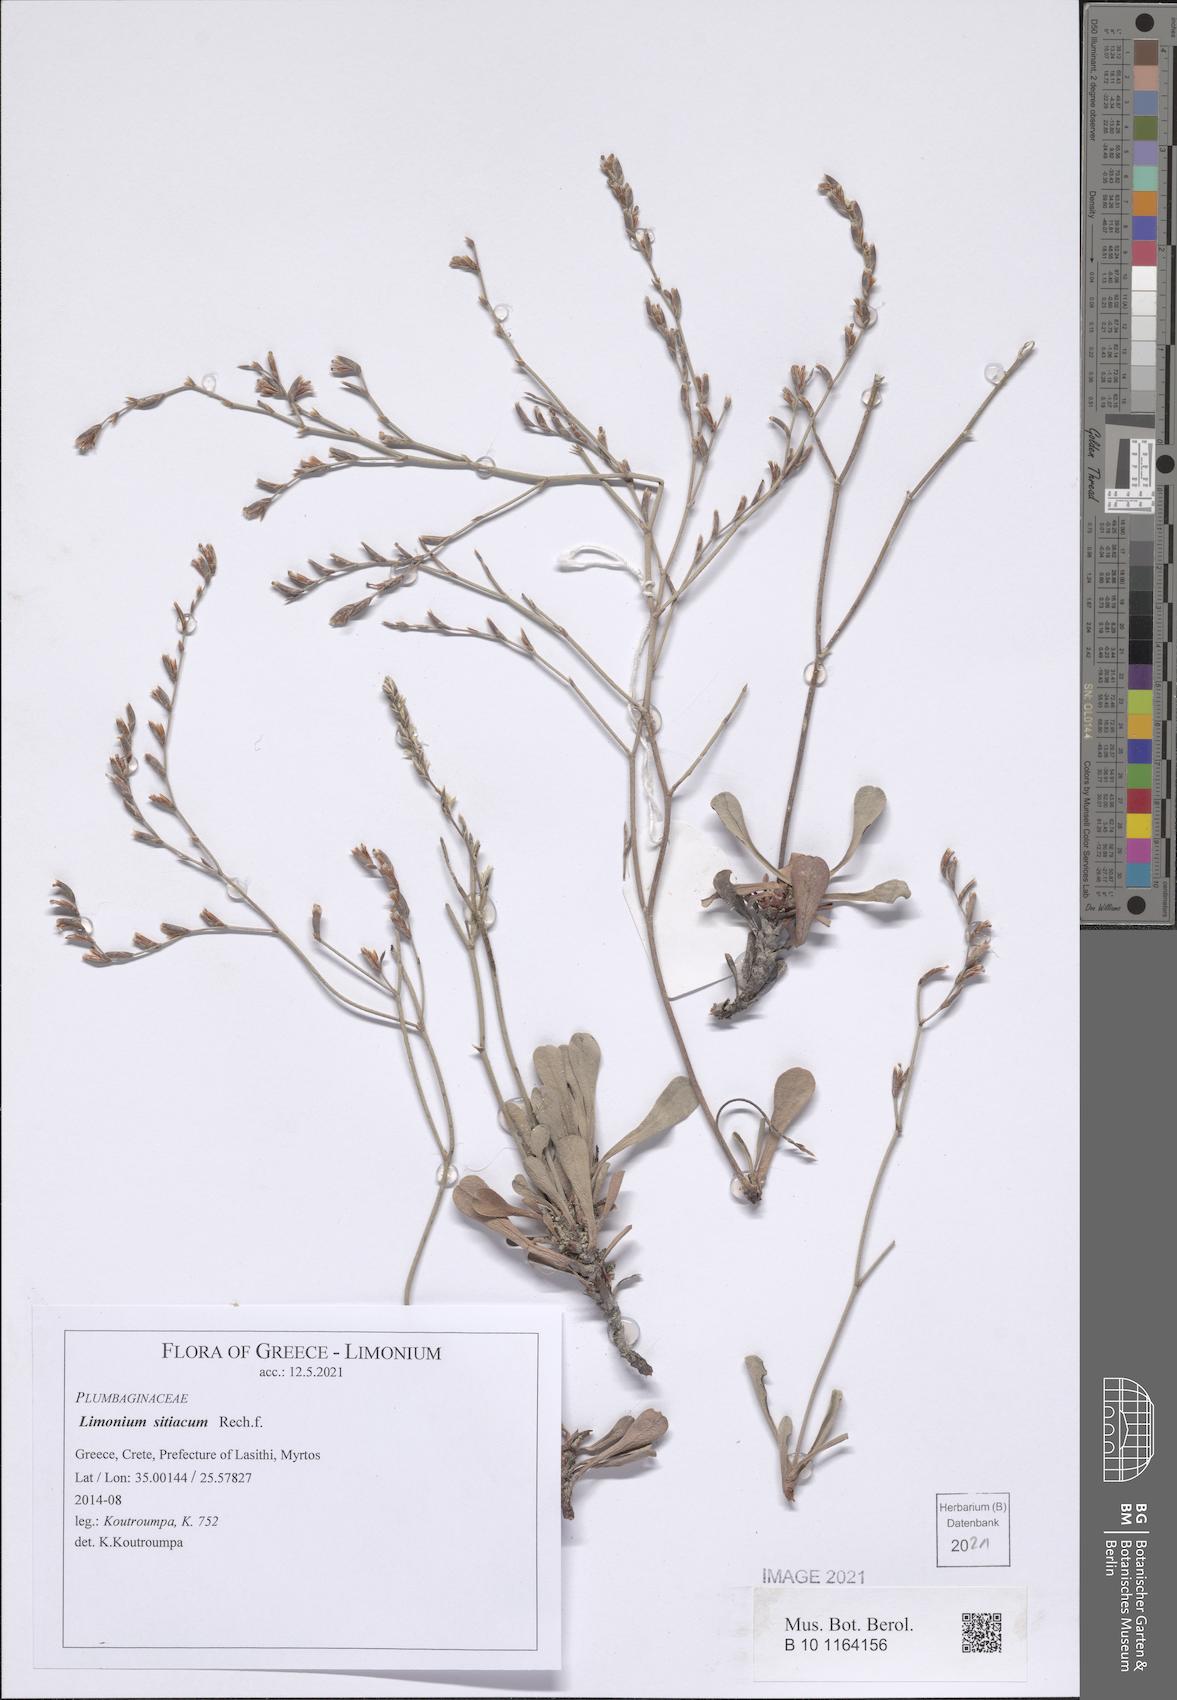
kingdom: Plantae
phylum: Tracheophyta
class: Magnoliopsida
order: Caryophyllales
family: Plumbaginaceae
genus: Limonium
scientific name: Limonium sitiacum
